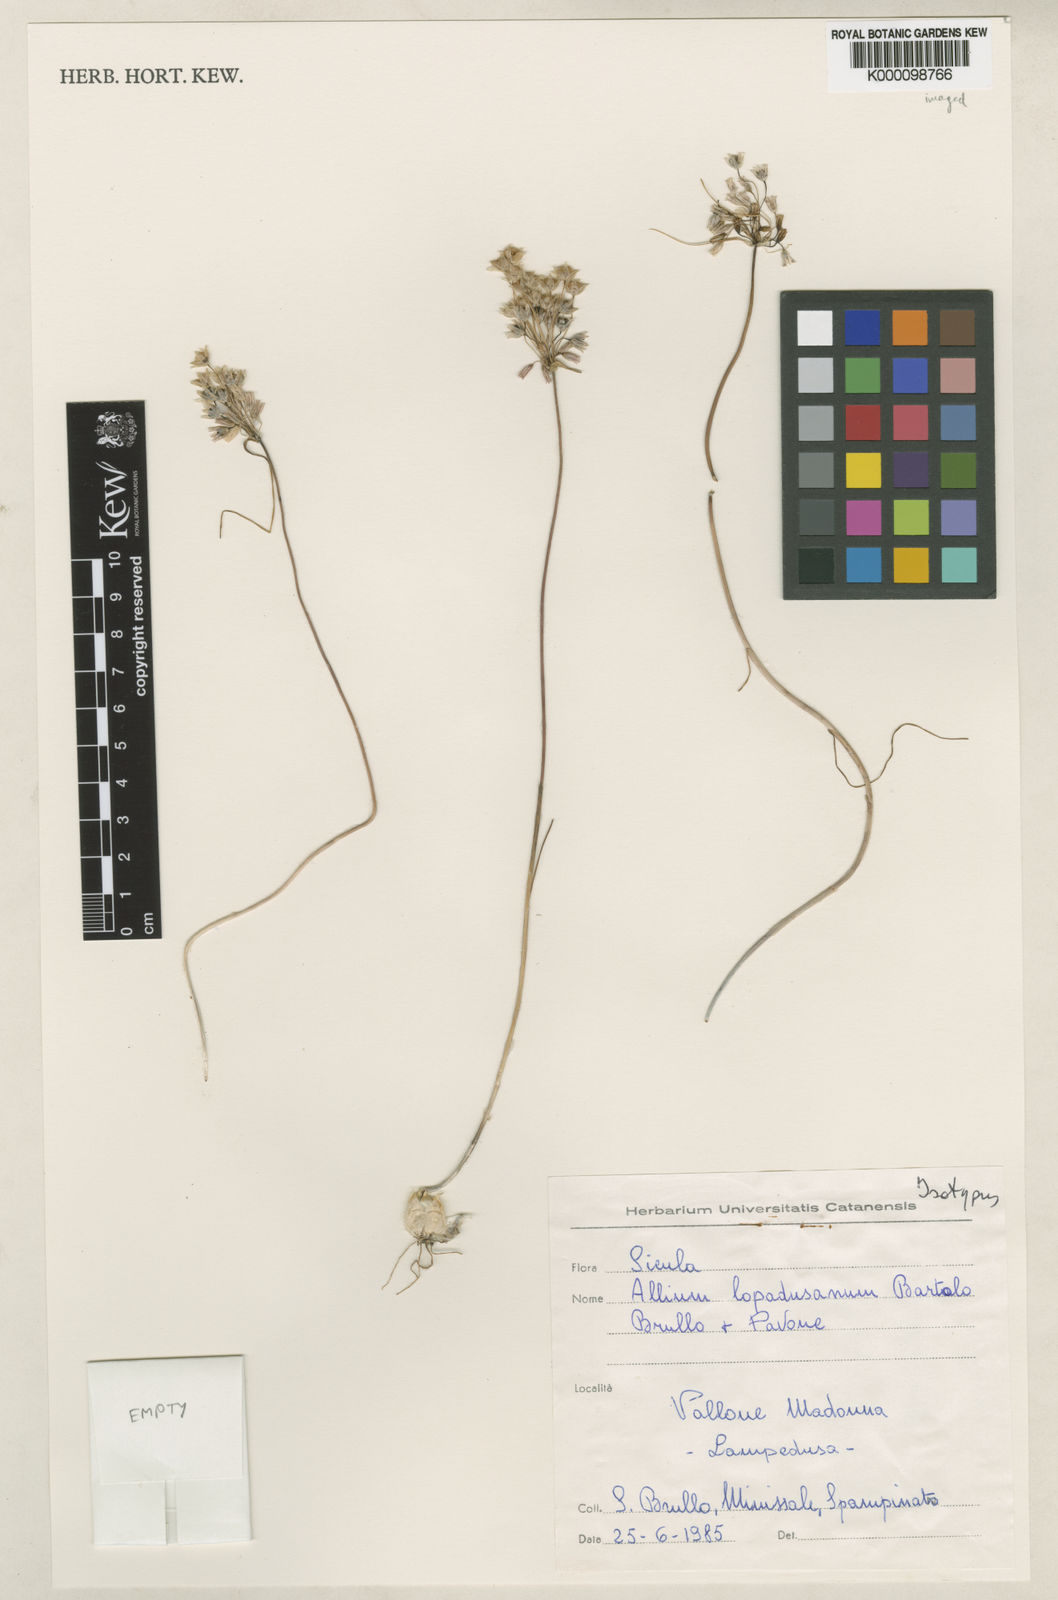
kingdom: Plantae
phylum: Tracheophyta
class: Liliopsida
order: Asparagales
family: Amaryllidaceae
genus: Allium
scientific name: Allium lopadusanum
